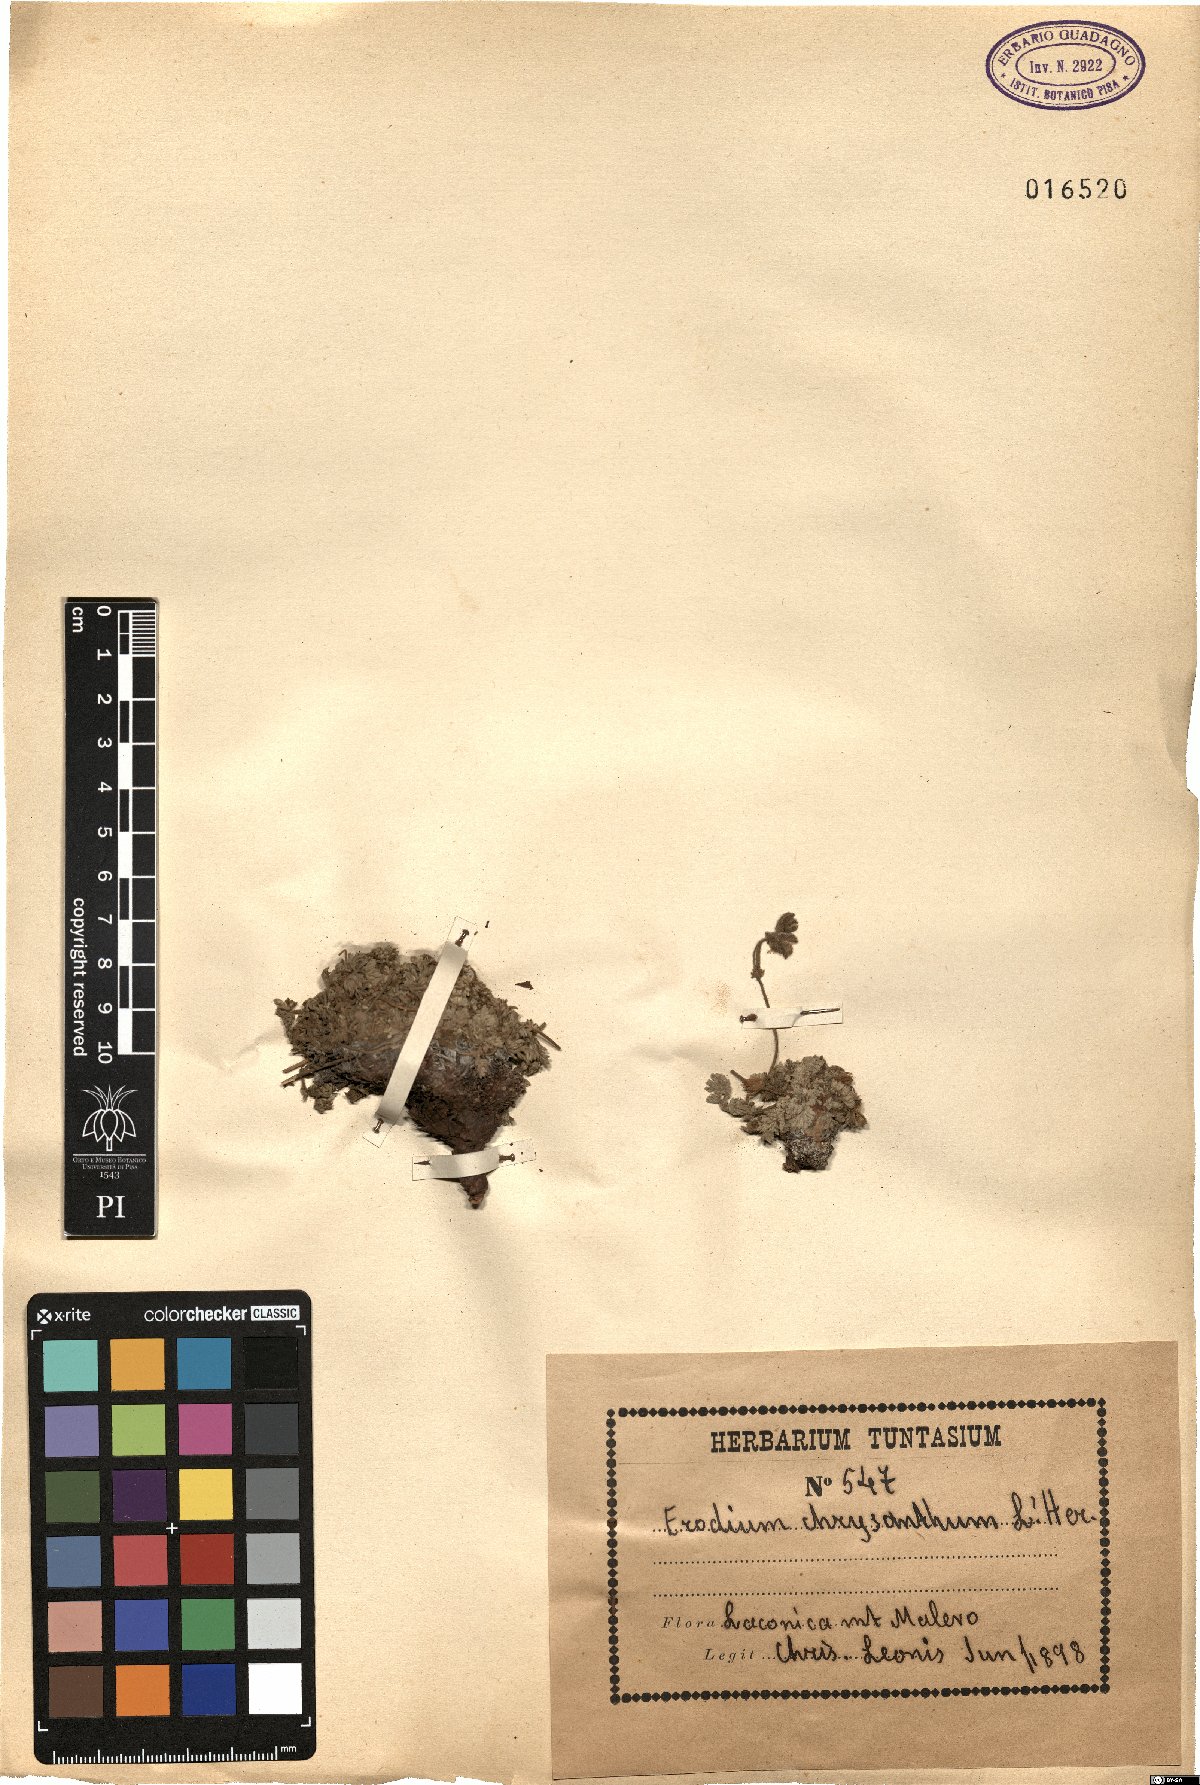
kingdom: Plantae
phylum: Tracheophyta
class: Magnoliopsida
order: Geraniales
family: Geraniaceae
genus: Erodium
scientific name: Erodium chrysanthum
